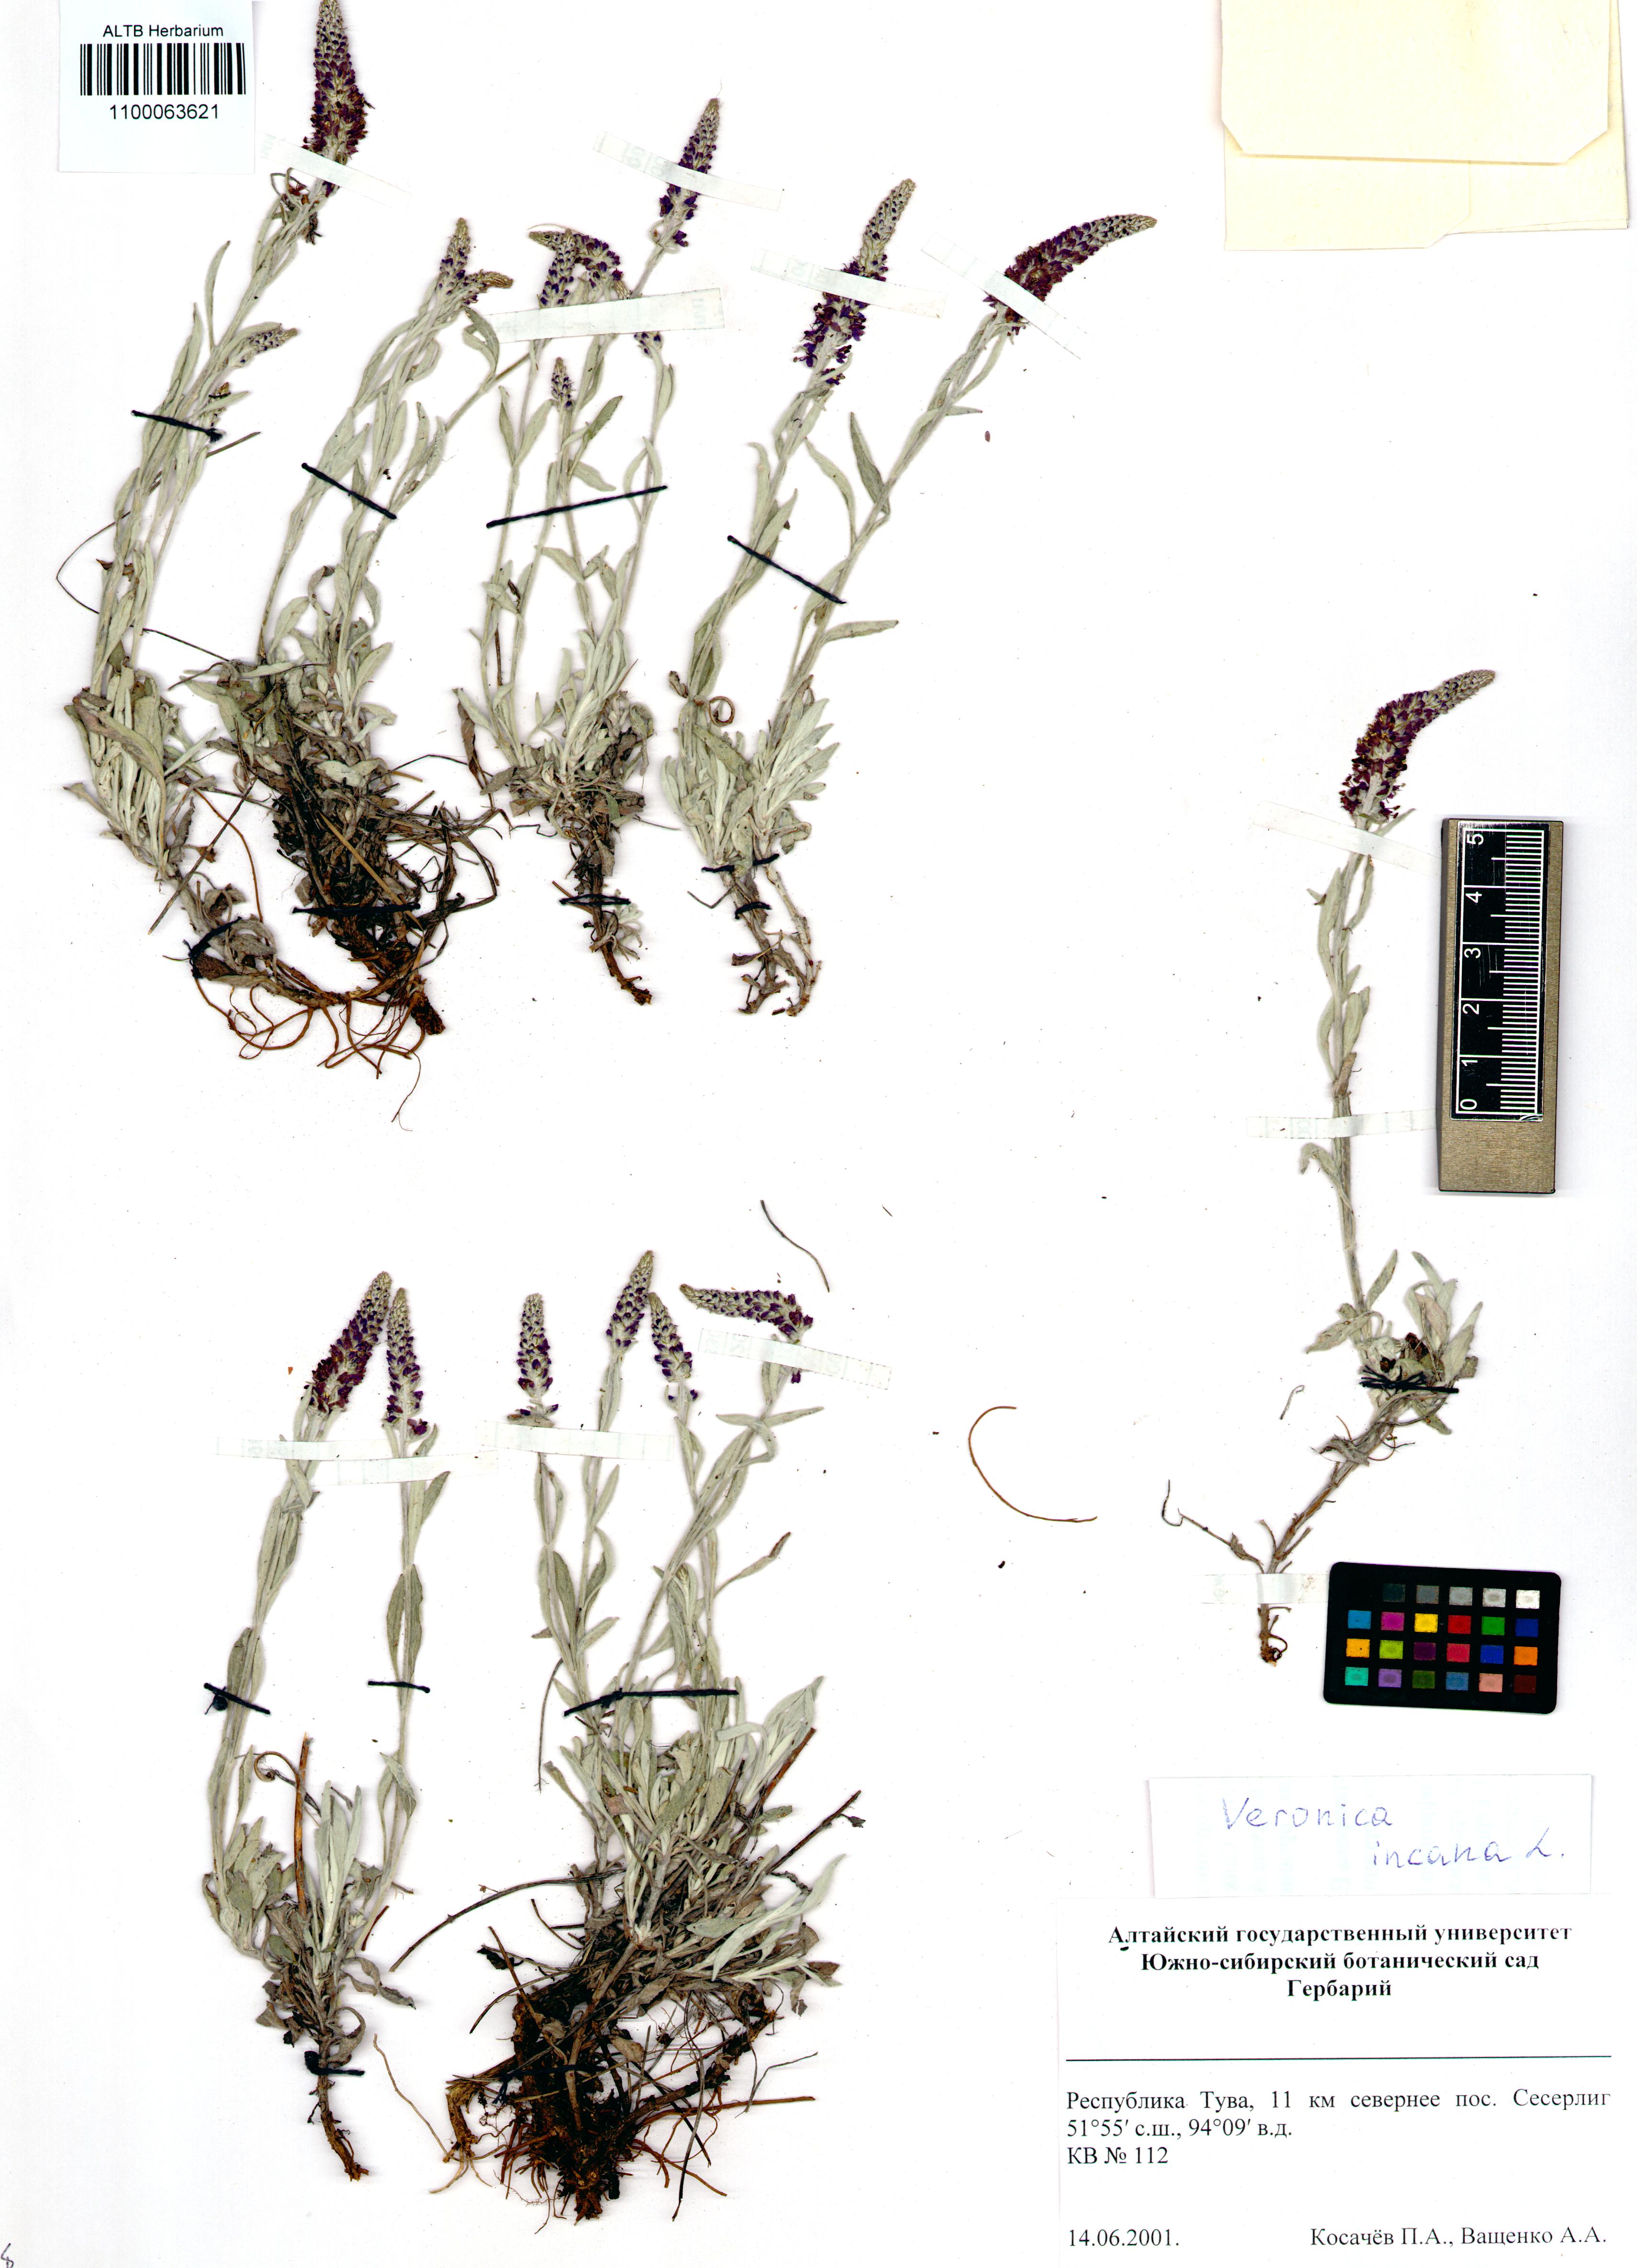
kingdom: Plantae
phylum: Tracheophyta
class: Magnoliopsida
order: Lamiales
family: Plantaginaceae
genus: Veronica
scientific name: Veronica incana
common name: Silver speedwell
